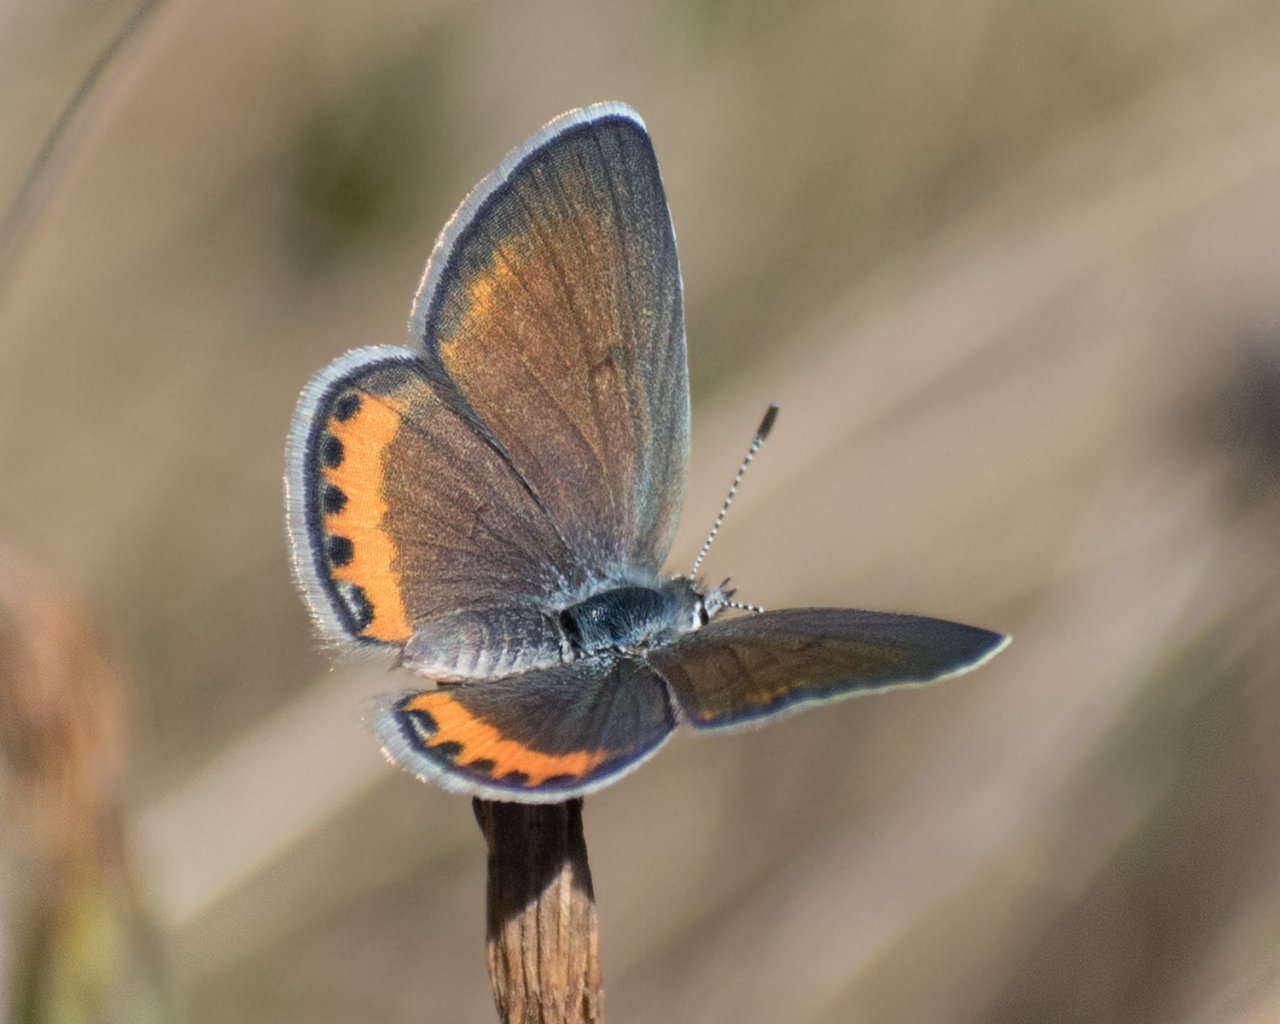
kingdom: Animalia
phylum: Arthropoda
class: Insecta
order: Lepidoptera
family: Lycaenidae
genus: Plebejus
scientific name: Plebejus acmon
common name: Acmon Blue
